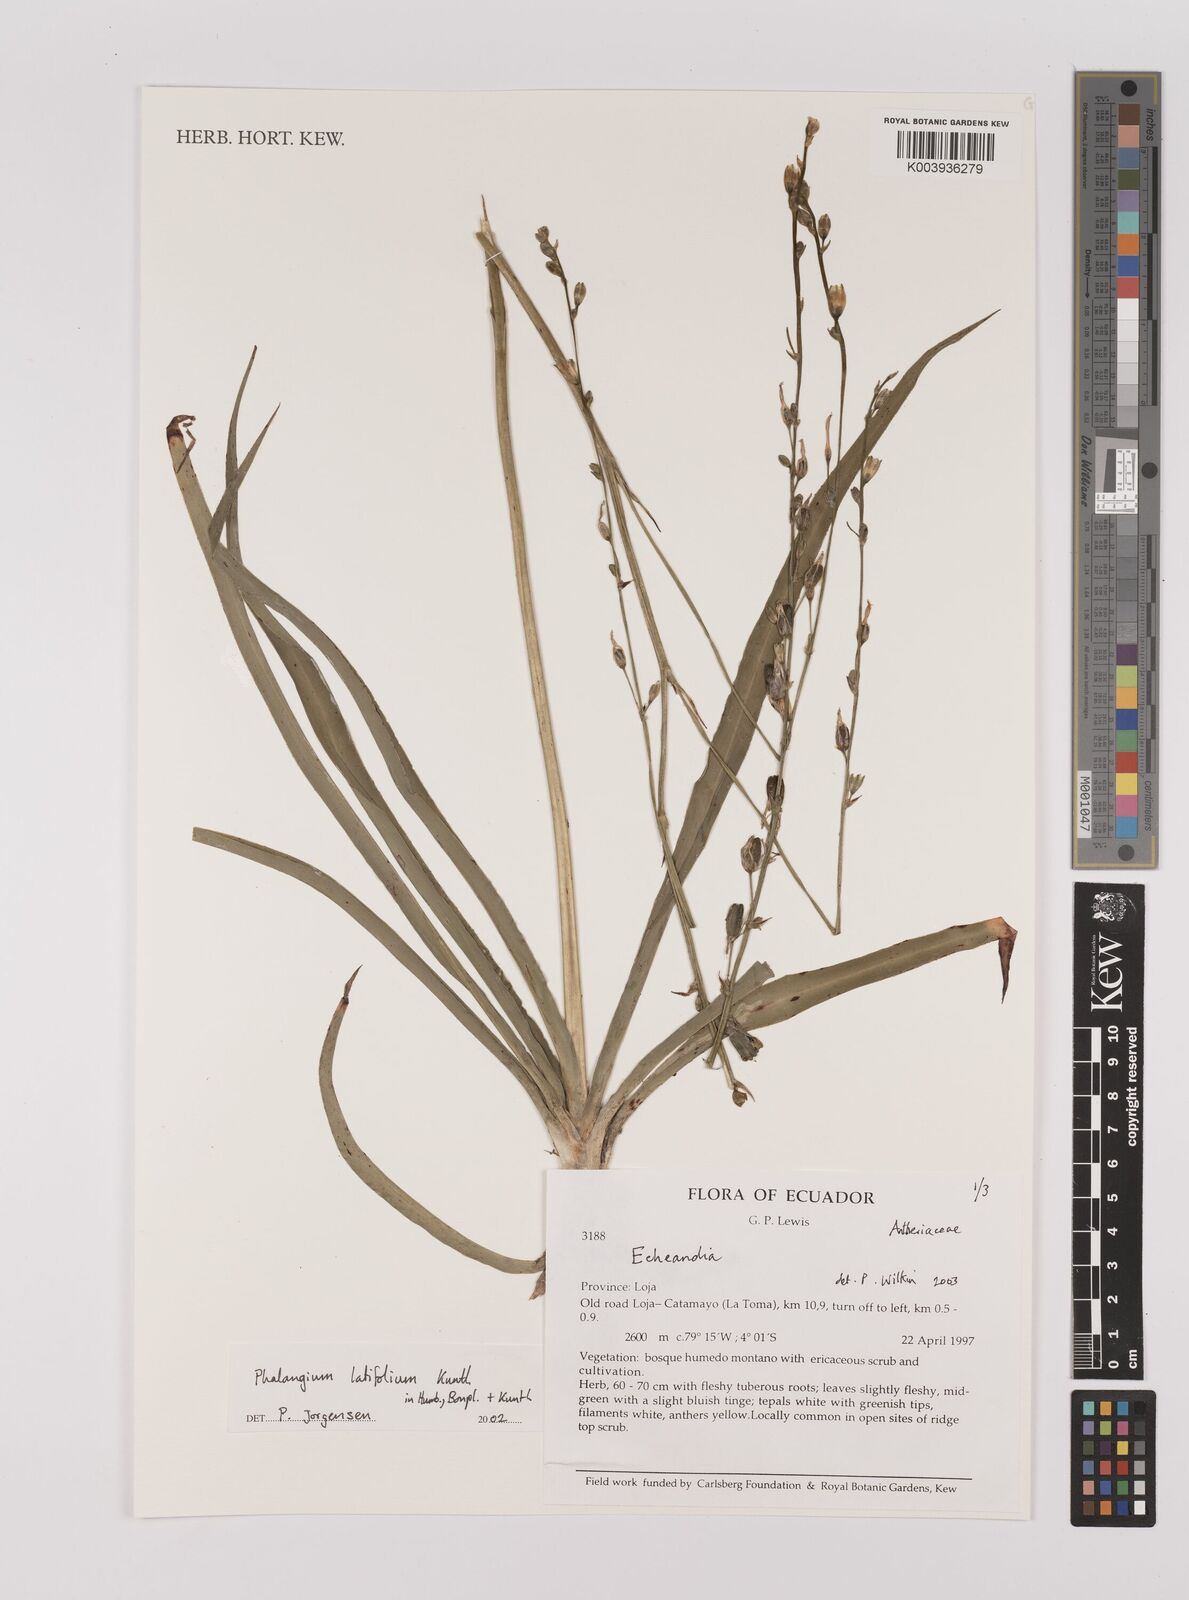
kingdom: Plantae
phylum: Tracheophyta
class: Liliopsida
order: Asparagales
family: Asparagaceae
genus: Echeandia
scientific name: Echeandia
